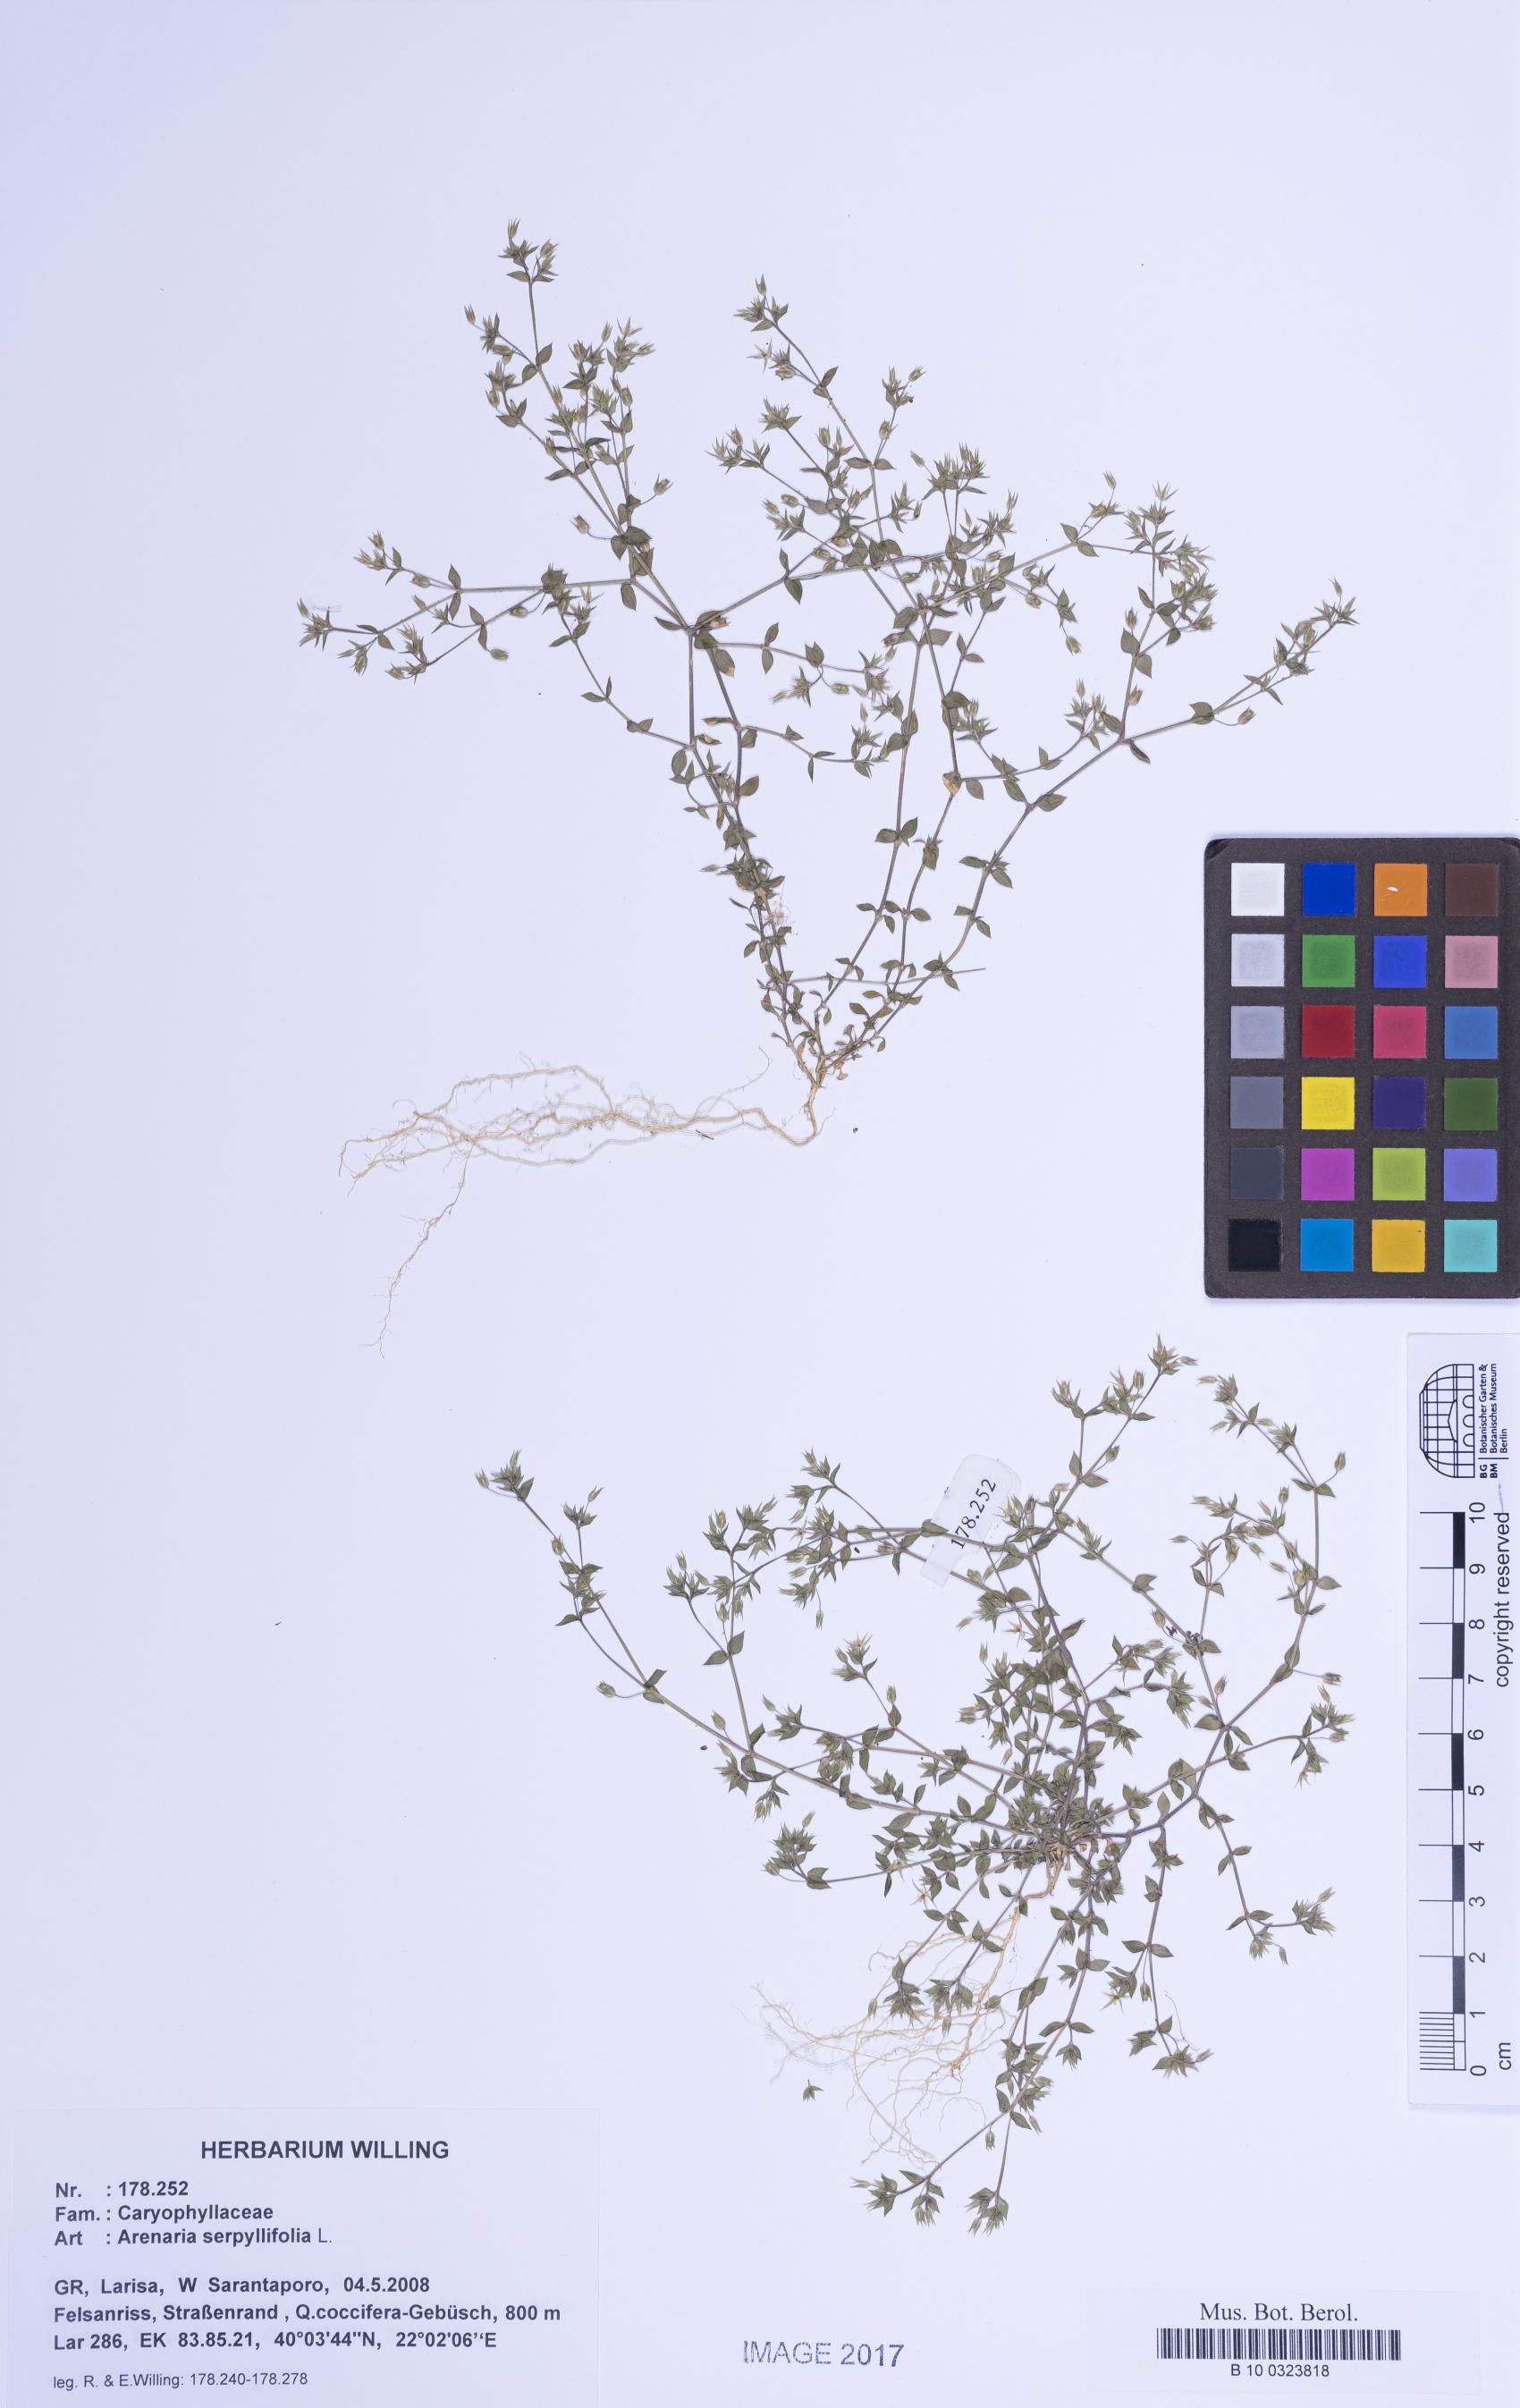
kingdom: Plantae
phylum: Tracheophyta
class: Magnoliopsida
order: Caryophyllales
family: Caryophyllaceae
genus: Arenaria
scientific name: Arenaria serpyllifolia
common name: Thyme-leaved sandwort
